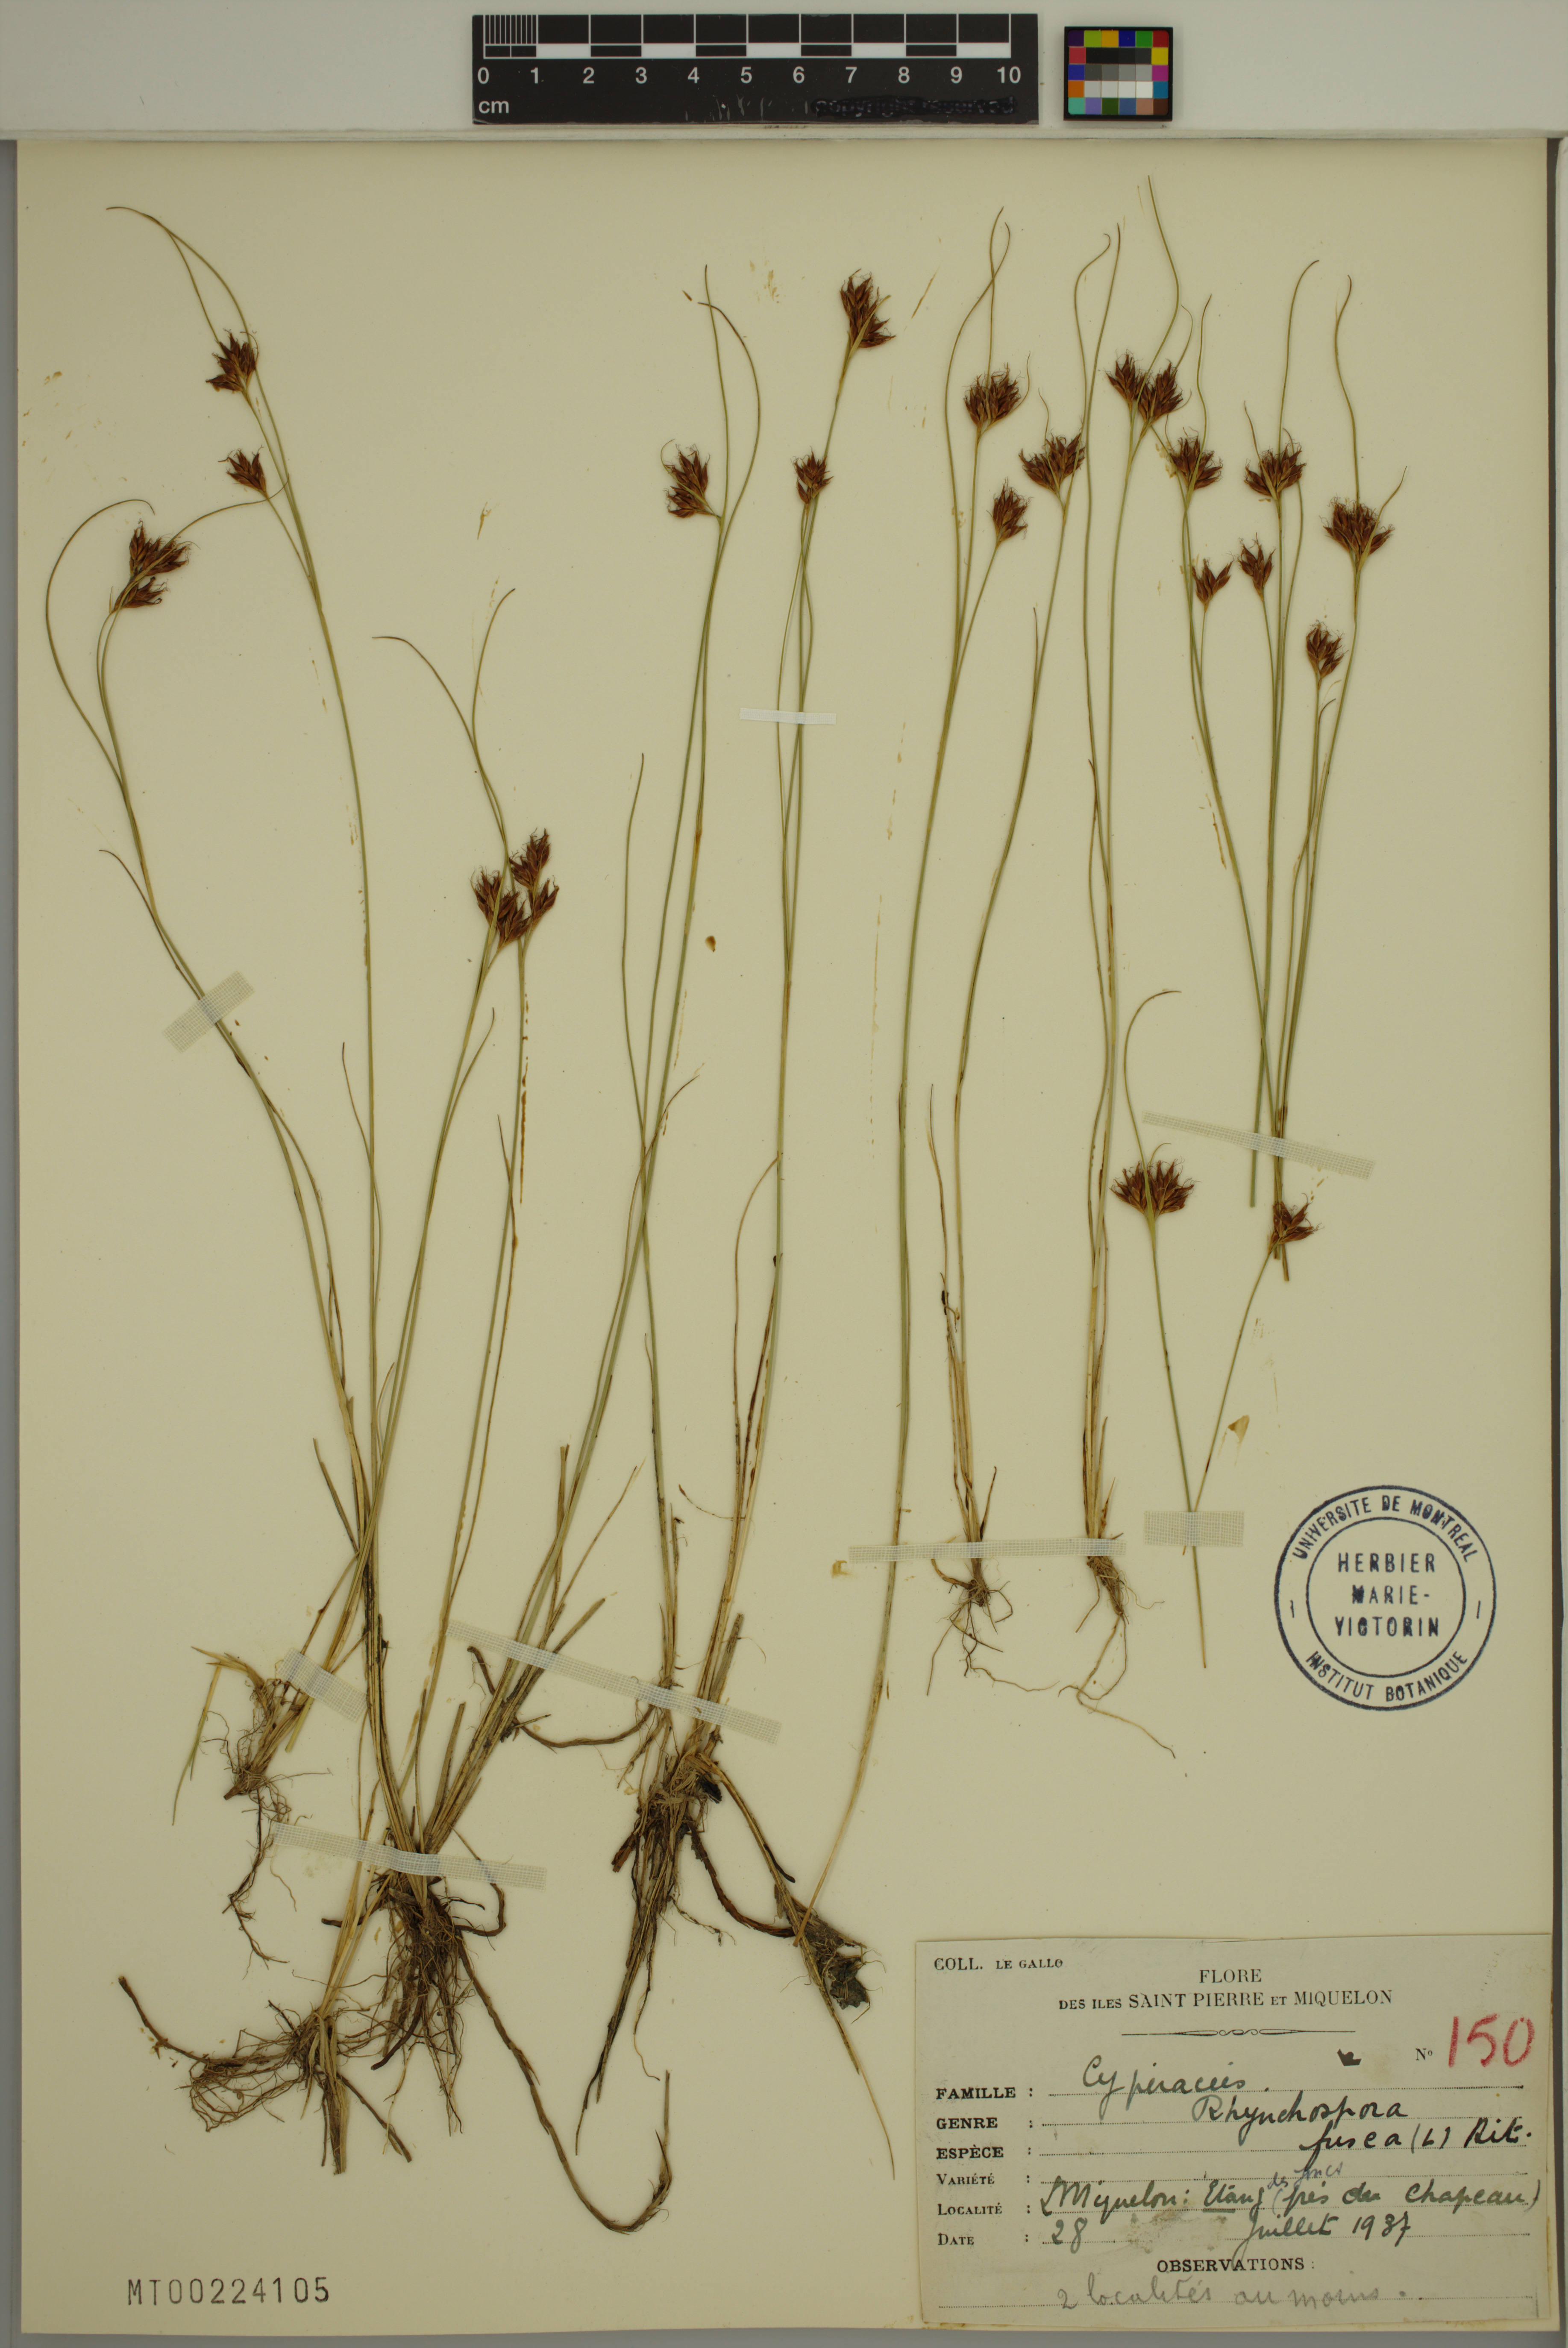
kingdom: Plantae
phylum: Tracheophyta
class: Liliopsida
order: Poales
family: Cyperaceae
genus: Rhynchospora
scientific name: Rhynchospora fusca
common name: Brown beak-sedge
